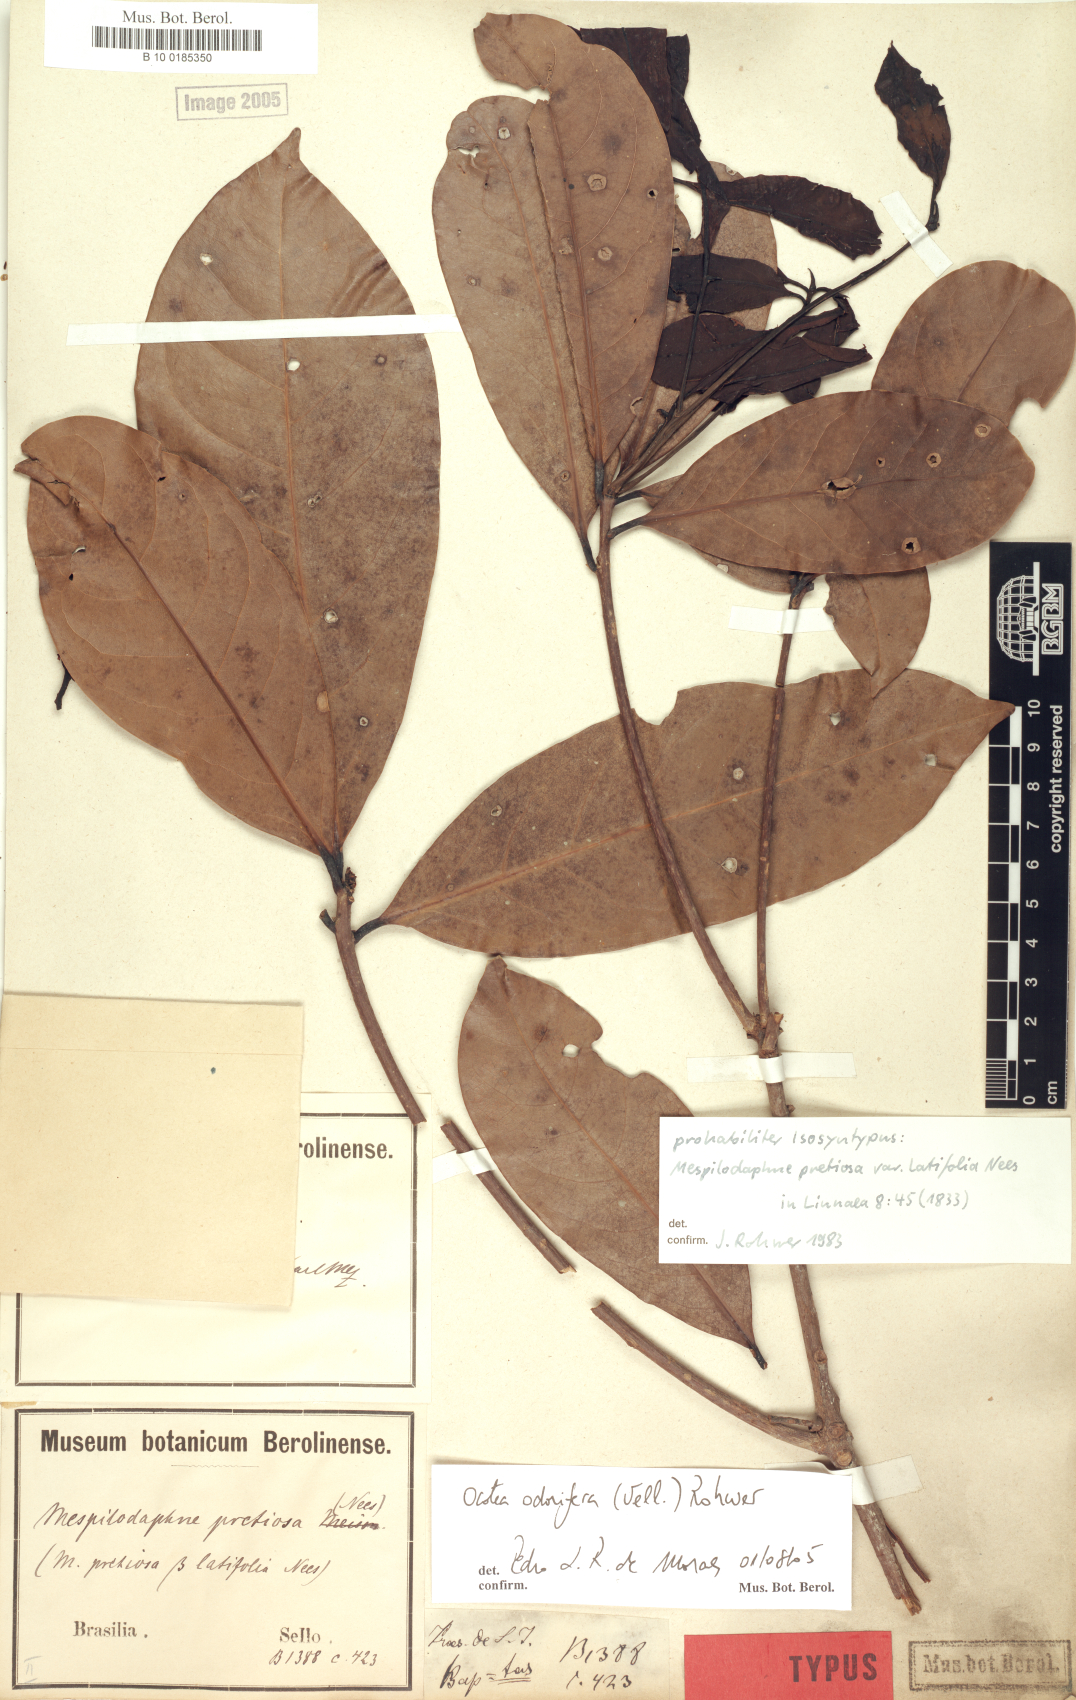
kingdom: Plantae
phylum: Tracheophyta
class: Magnoliopsida
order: Laurales
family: Lauraceae
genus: Mespilodaphne
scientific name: Mespilodaphne quixos
